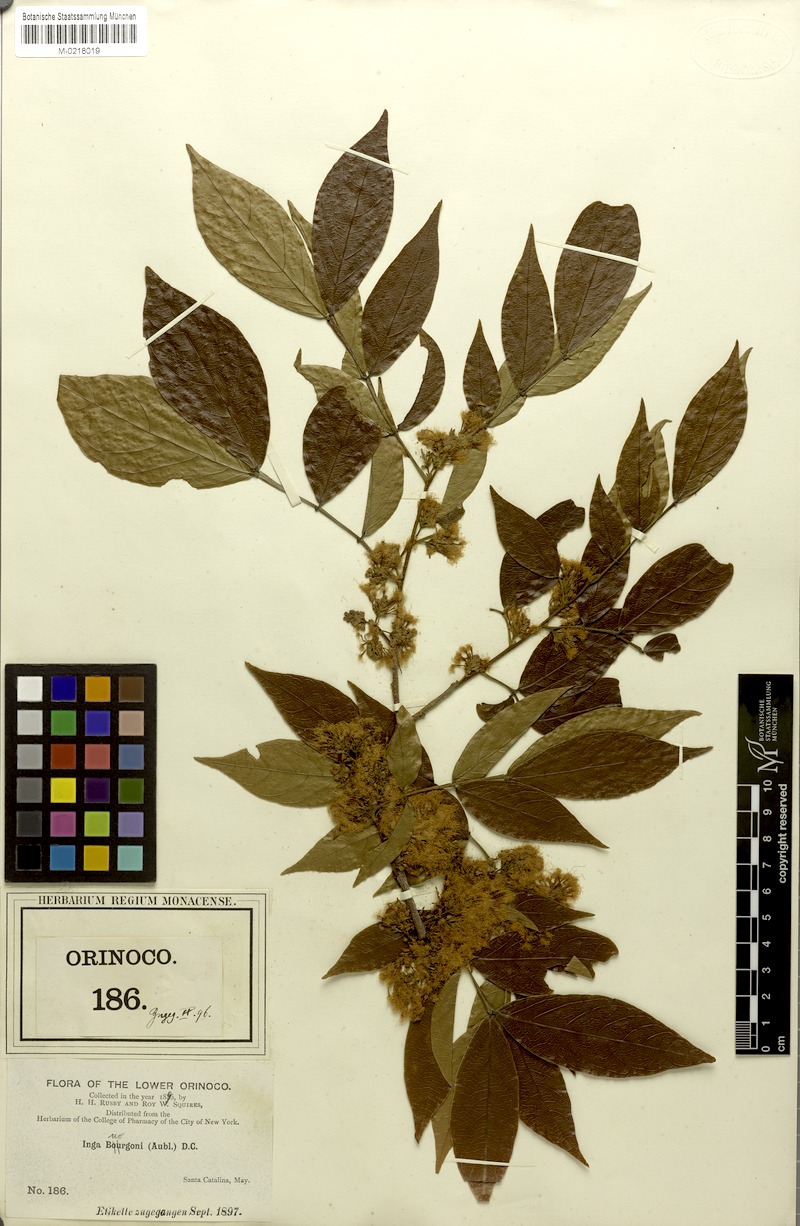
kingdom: Plantae
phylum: Tracheophyta
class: Magnoliopsida
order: Fabales
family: Fabaceae
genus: Inga
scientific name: Inga bourgoni
